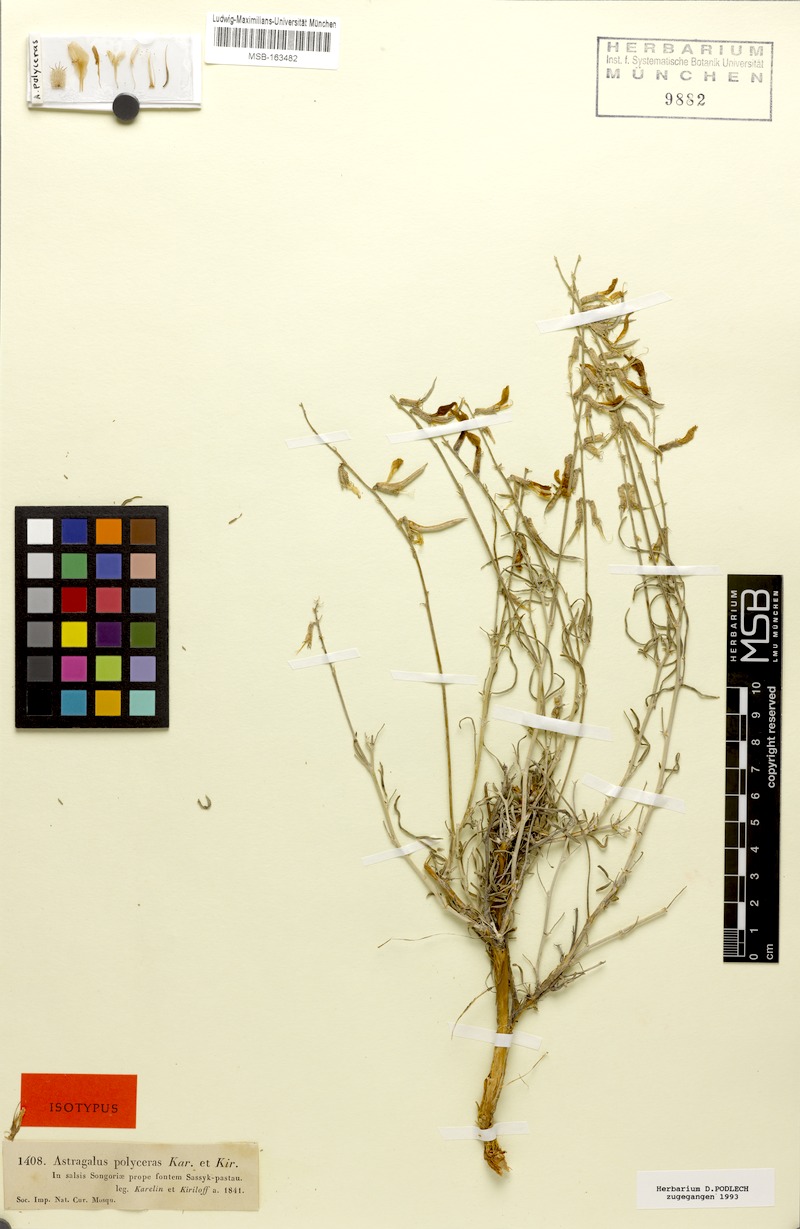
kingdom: Plantae
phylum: Tracheophyta
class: Magnoliopsida
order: Fabales
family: Fabaceae
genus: Astragalus
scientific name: Astragalus polyceras
